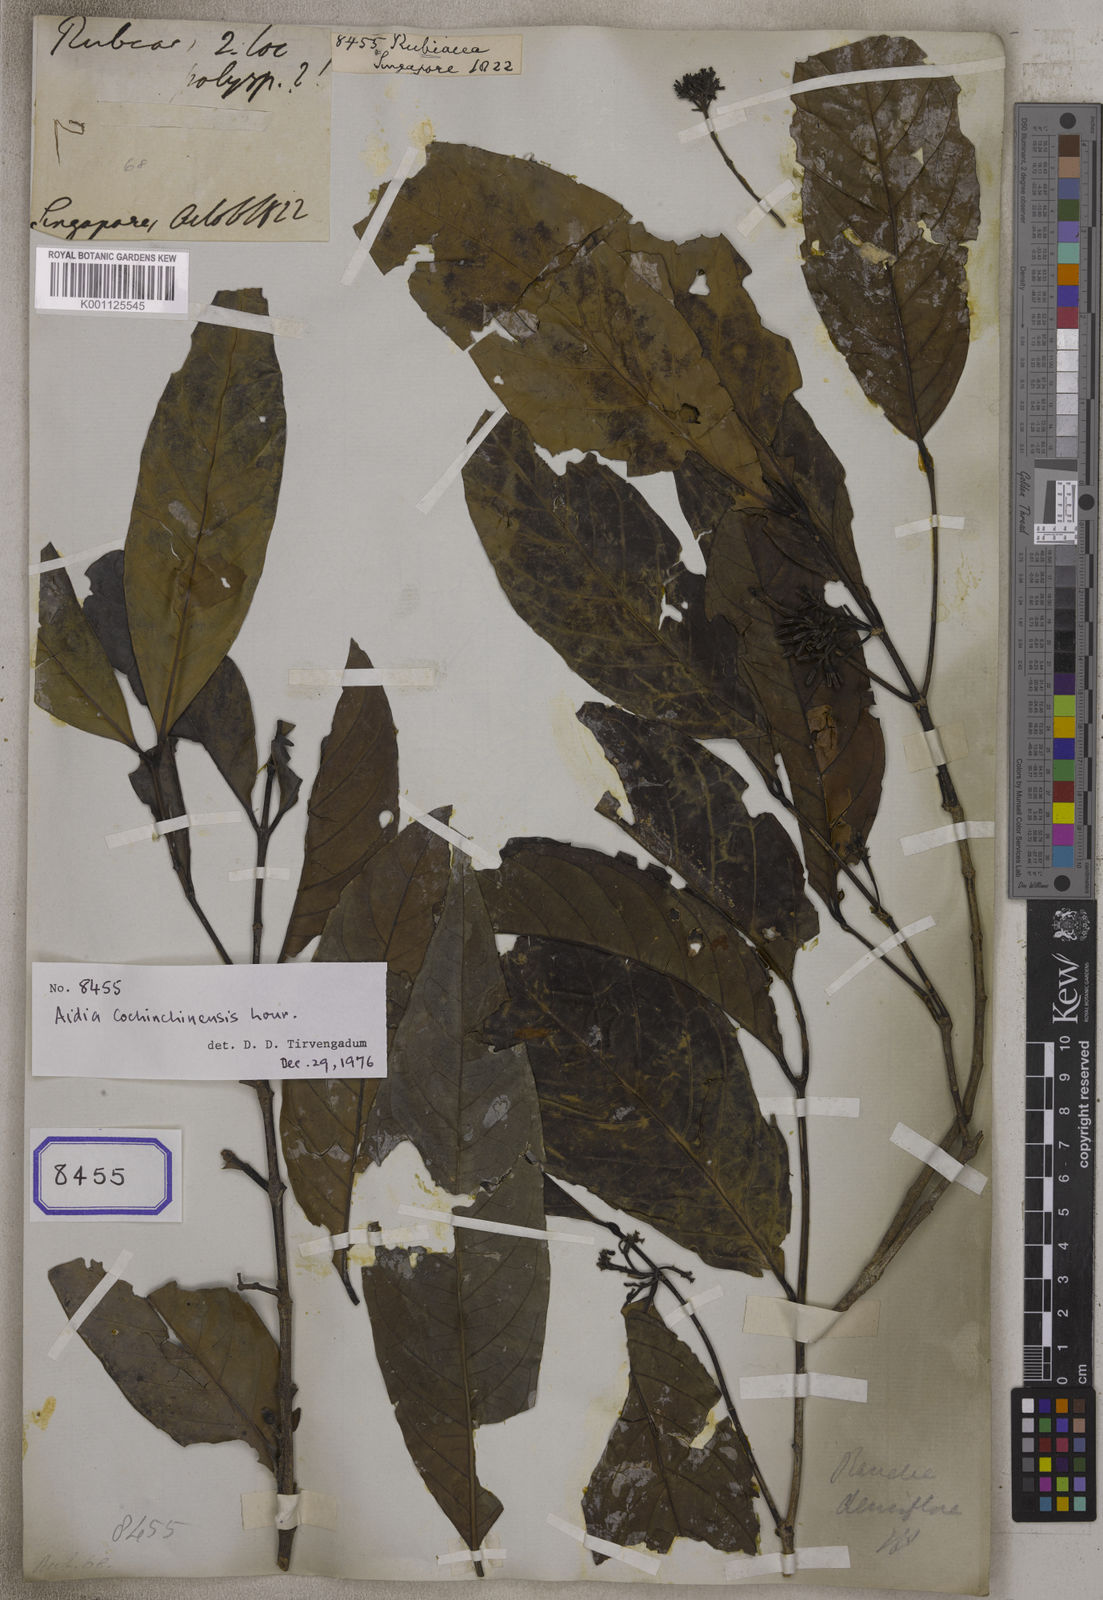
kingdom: Plantae
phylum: Tracheophyta
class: Magnoliopsida
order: Gentianales
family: Rubiaceae
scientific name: Rubiaceae
